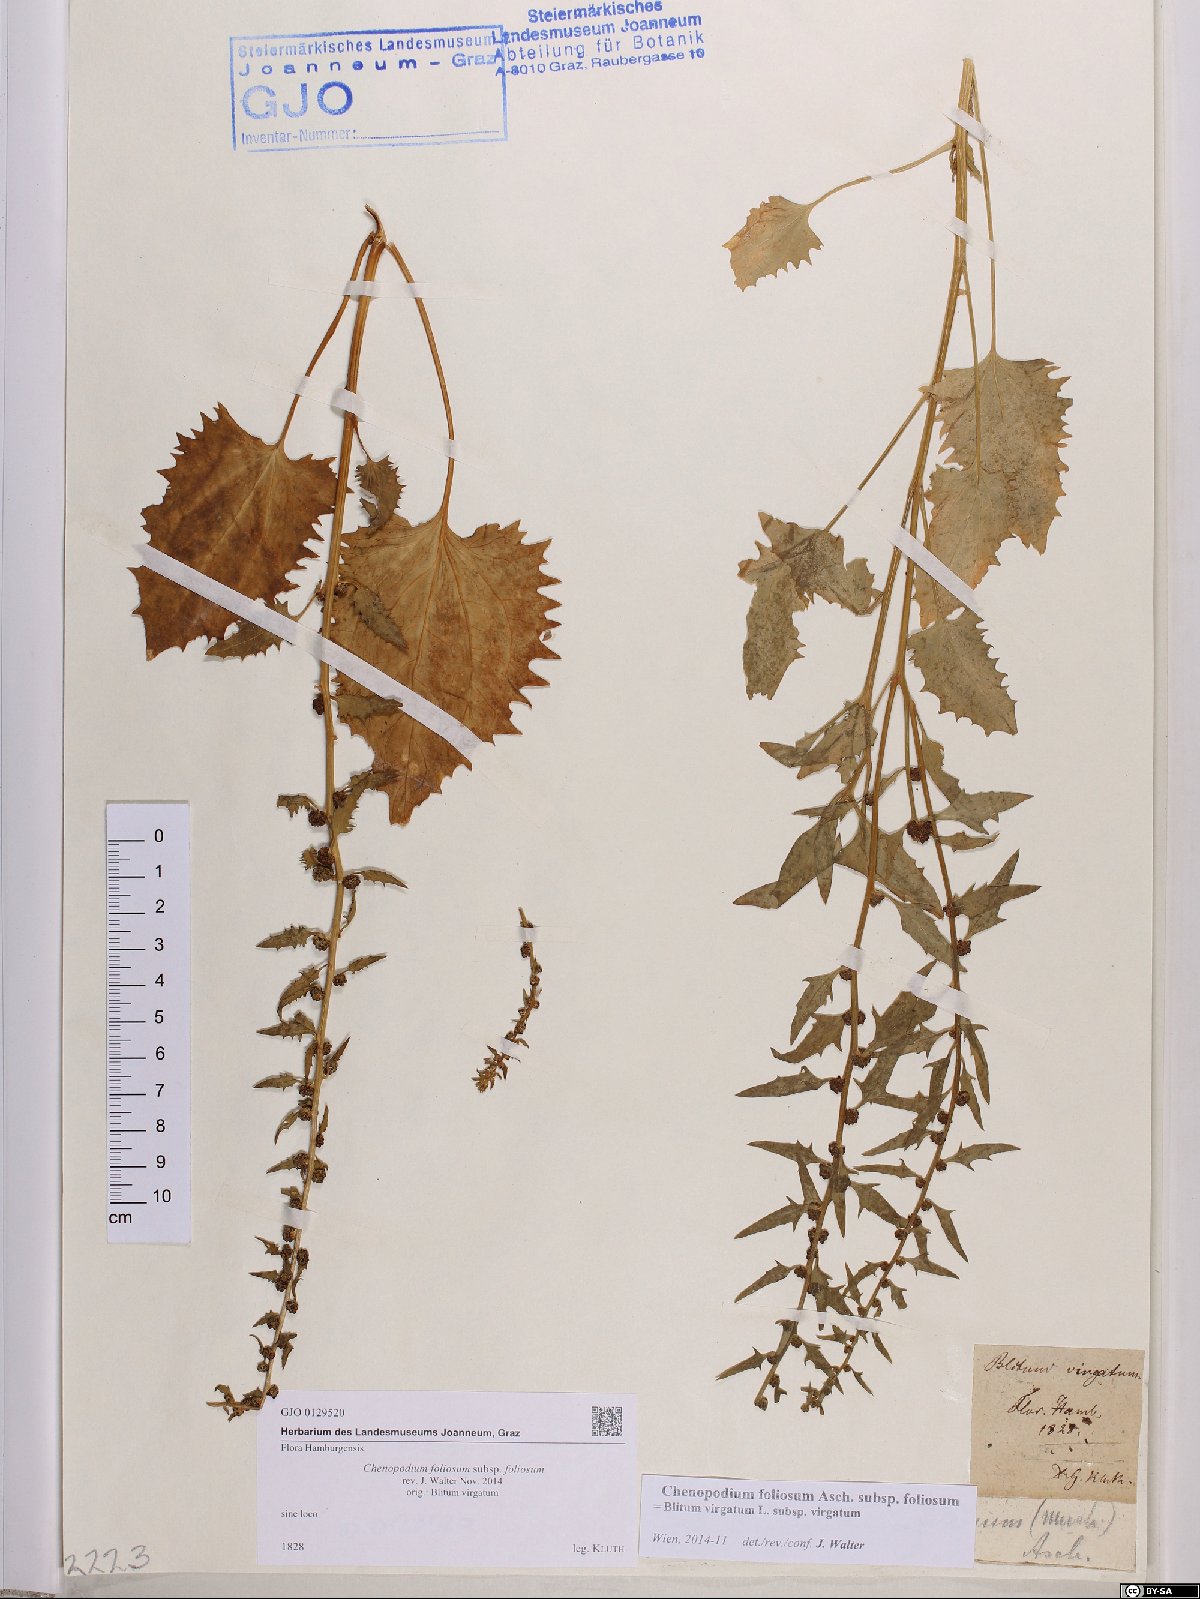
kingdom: Plantae
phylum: Tracheophyta
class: Magnoliopsida
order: Caryophyllales
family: Amaranthaceae
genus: Blitum
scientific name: Blitum virgatum
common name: Strawberry goosefoot
